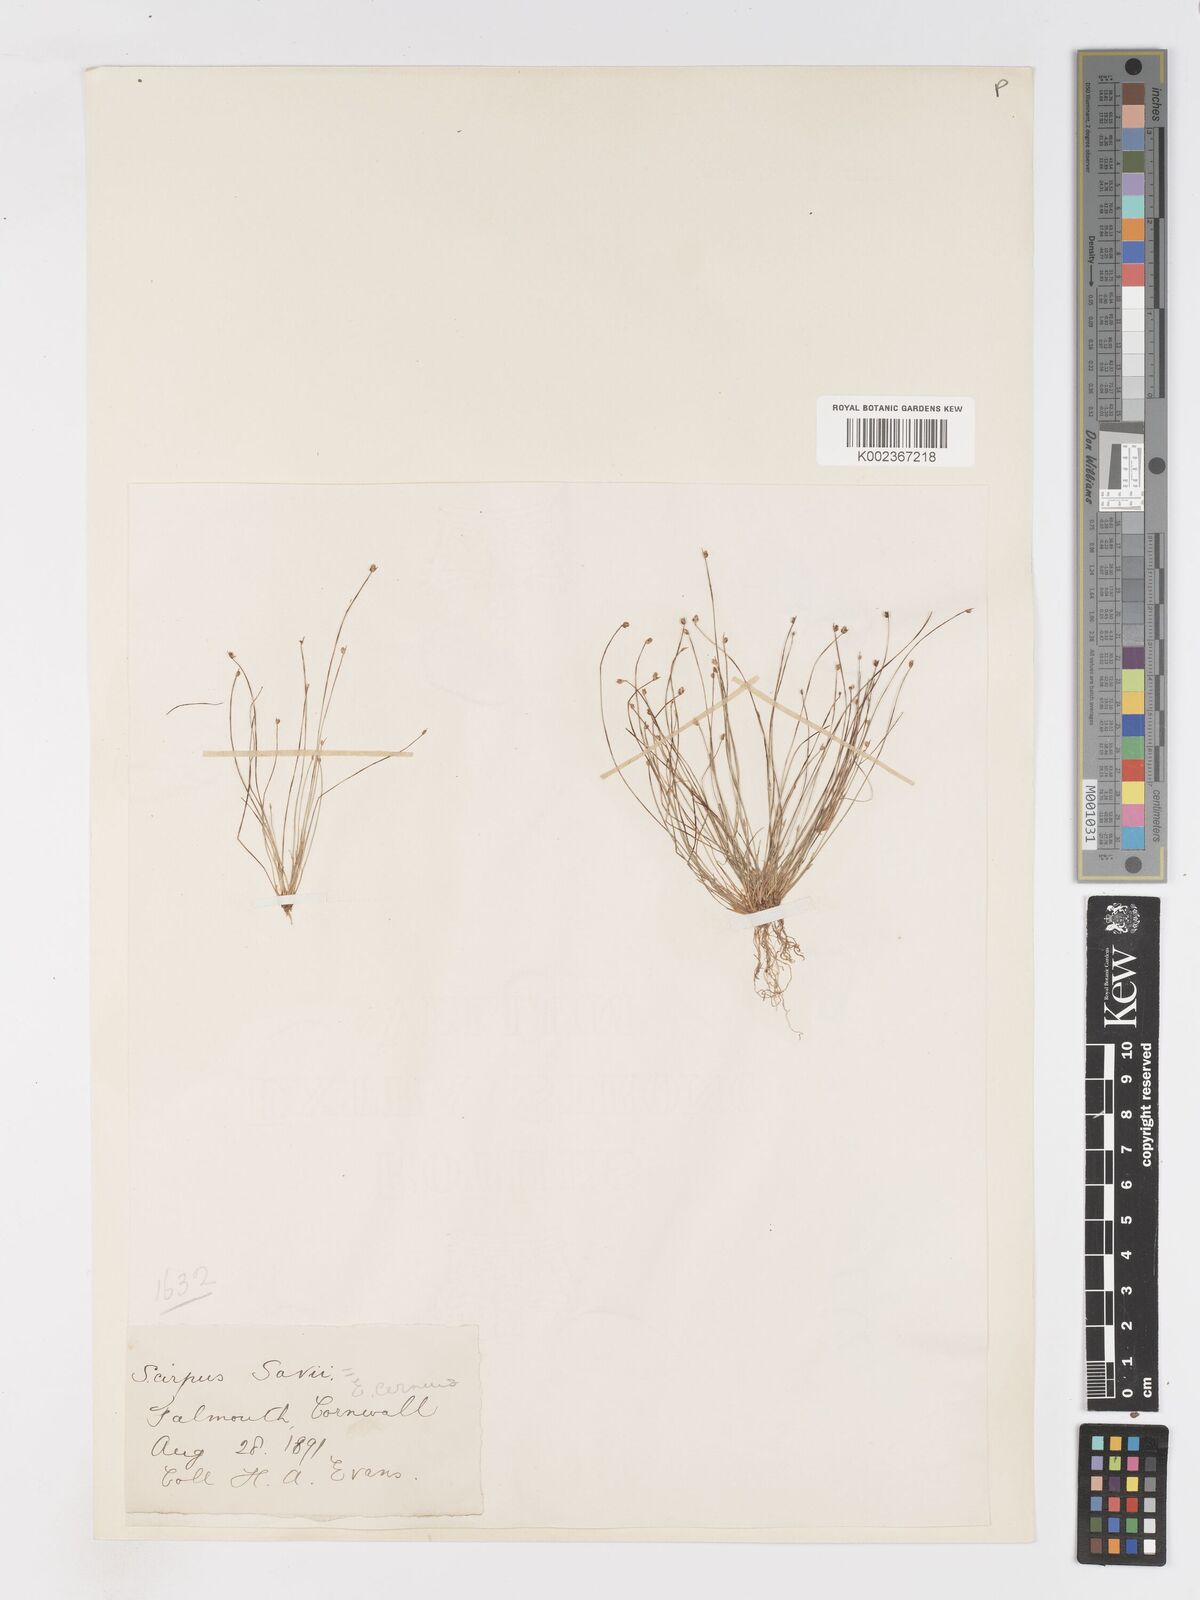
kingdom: Plantae
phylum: Tracheophyta
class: Liliopsida
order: Poales
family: Cyperaceae
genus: Isolepis
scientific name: Isolepis cernua
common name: Slender club-rush
